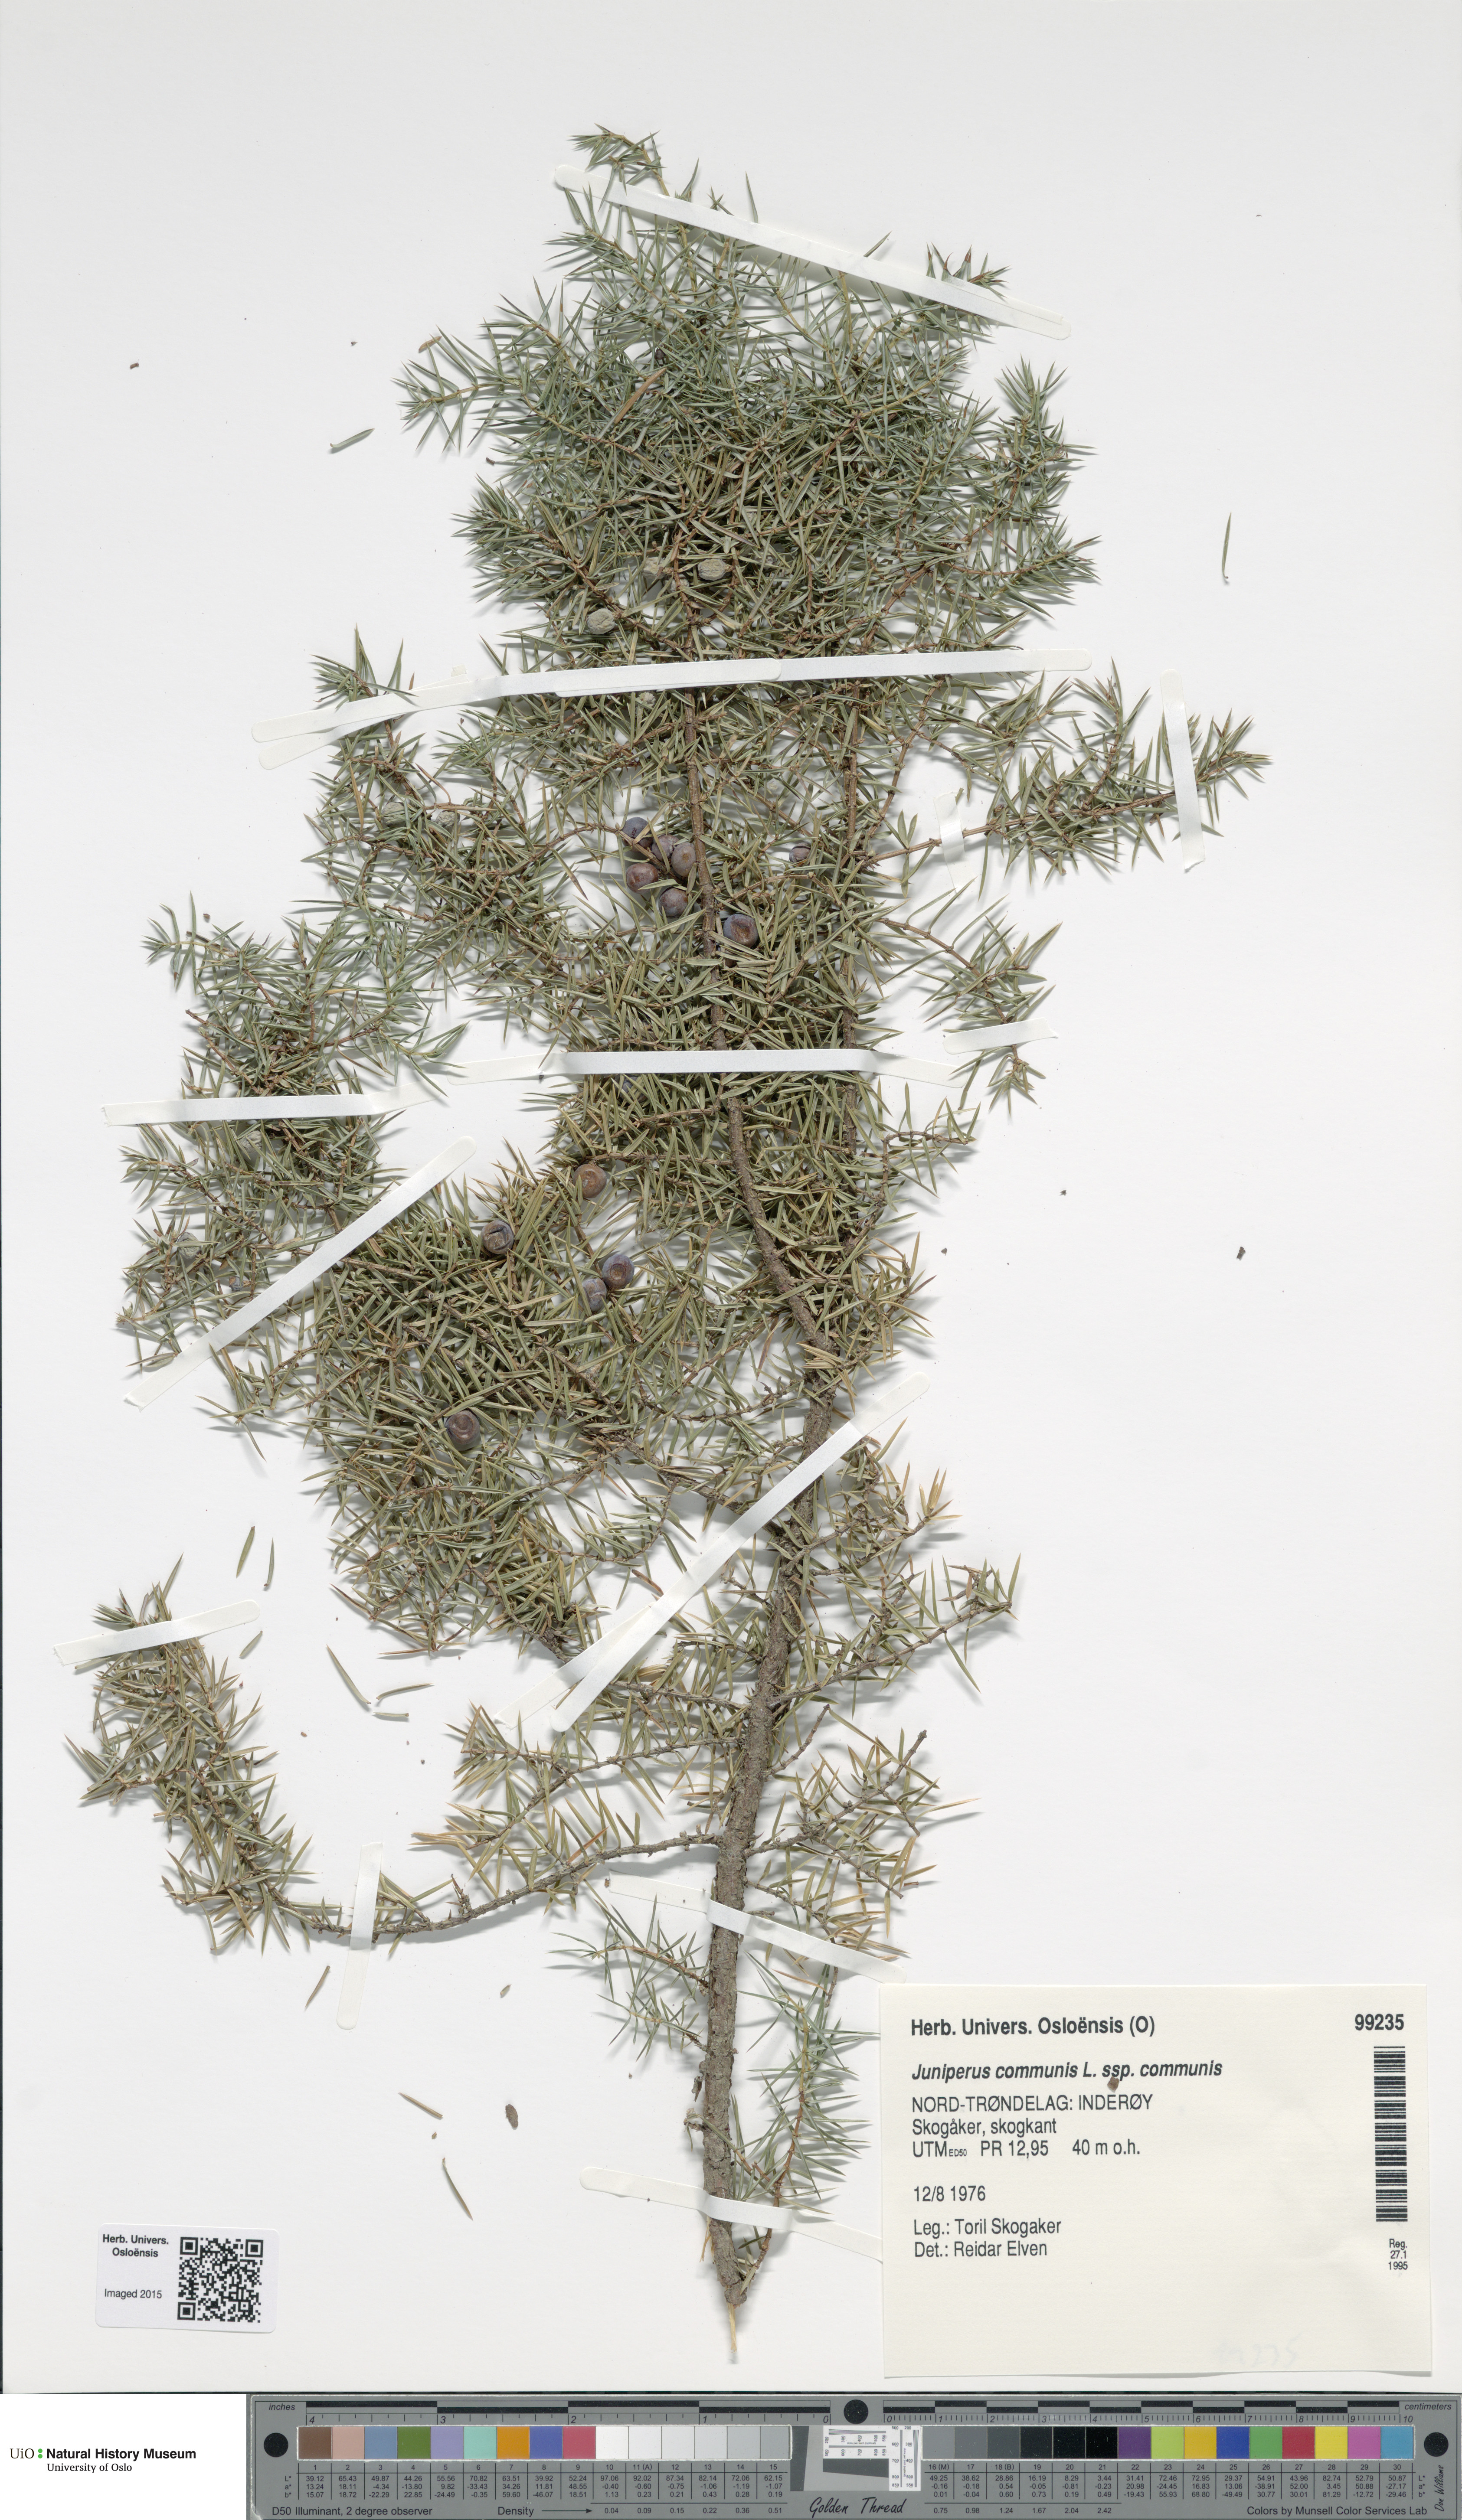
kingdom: Plantae
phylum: Tracheophyta
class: Pinopsida
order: Pinales
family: Cupressaceae
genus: Juniperus
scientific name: Juniperus communis
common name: Common juniper
